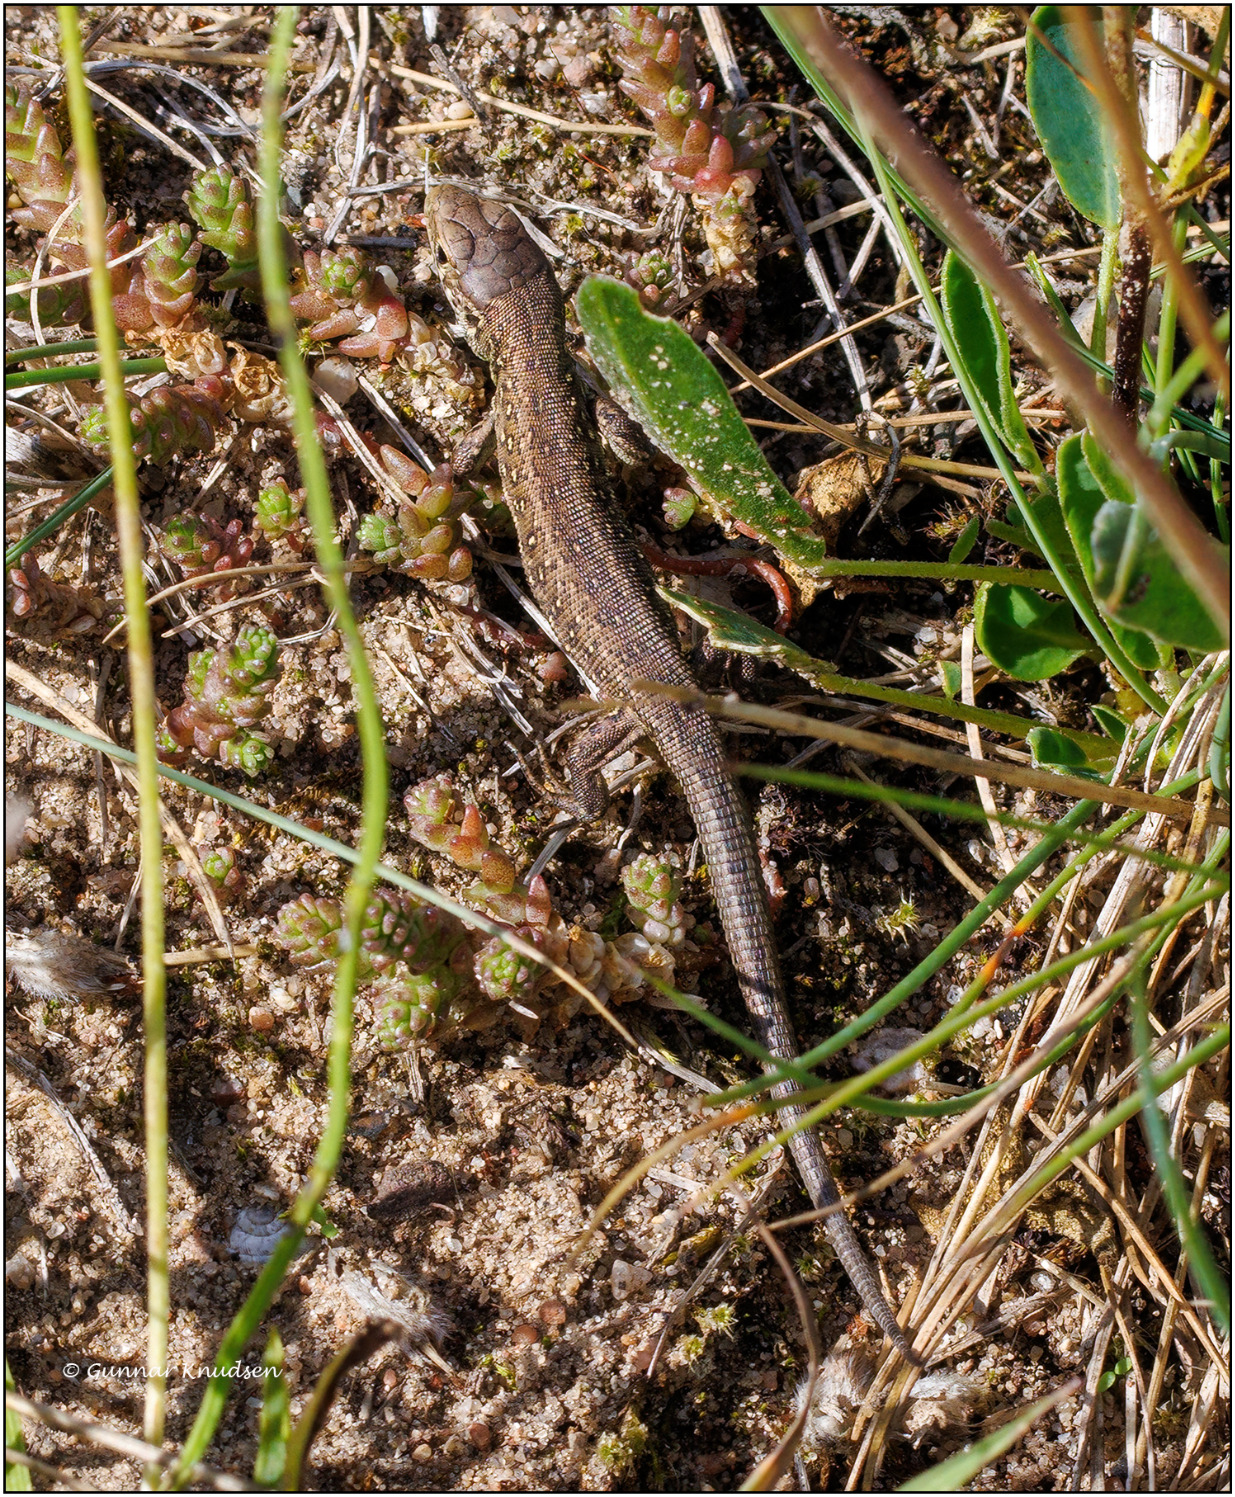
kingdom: Animalia
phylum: Chordata
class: Squamata
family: Lacertidae
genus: Lacerta
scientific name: Lacerta agilis
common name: Markfirben
